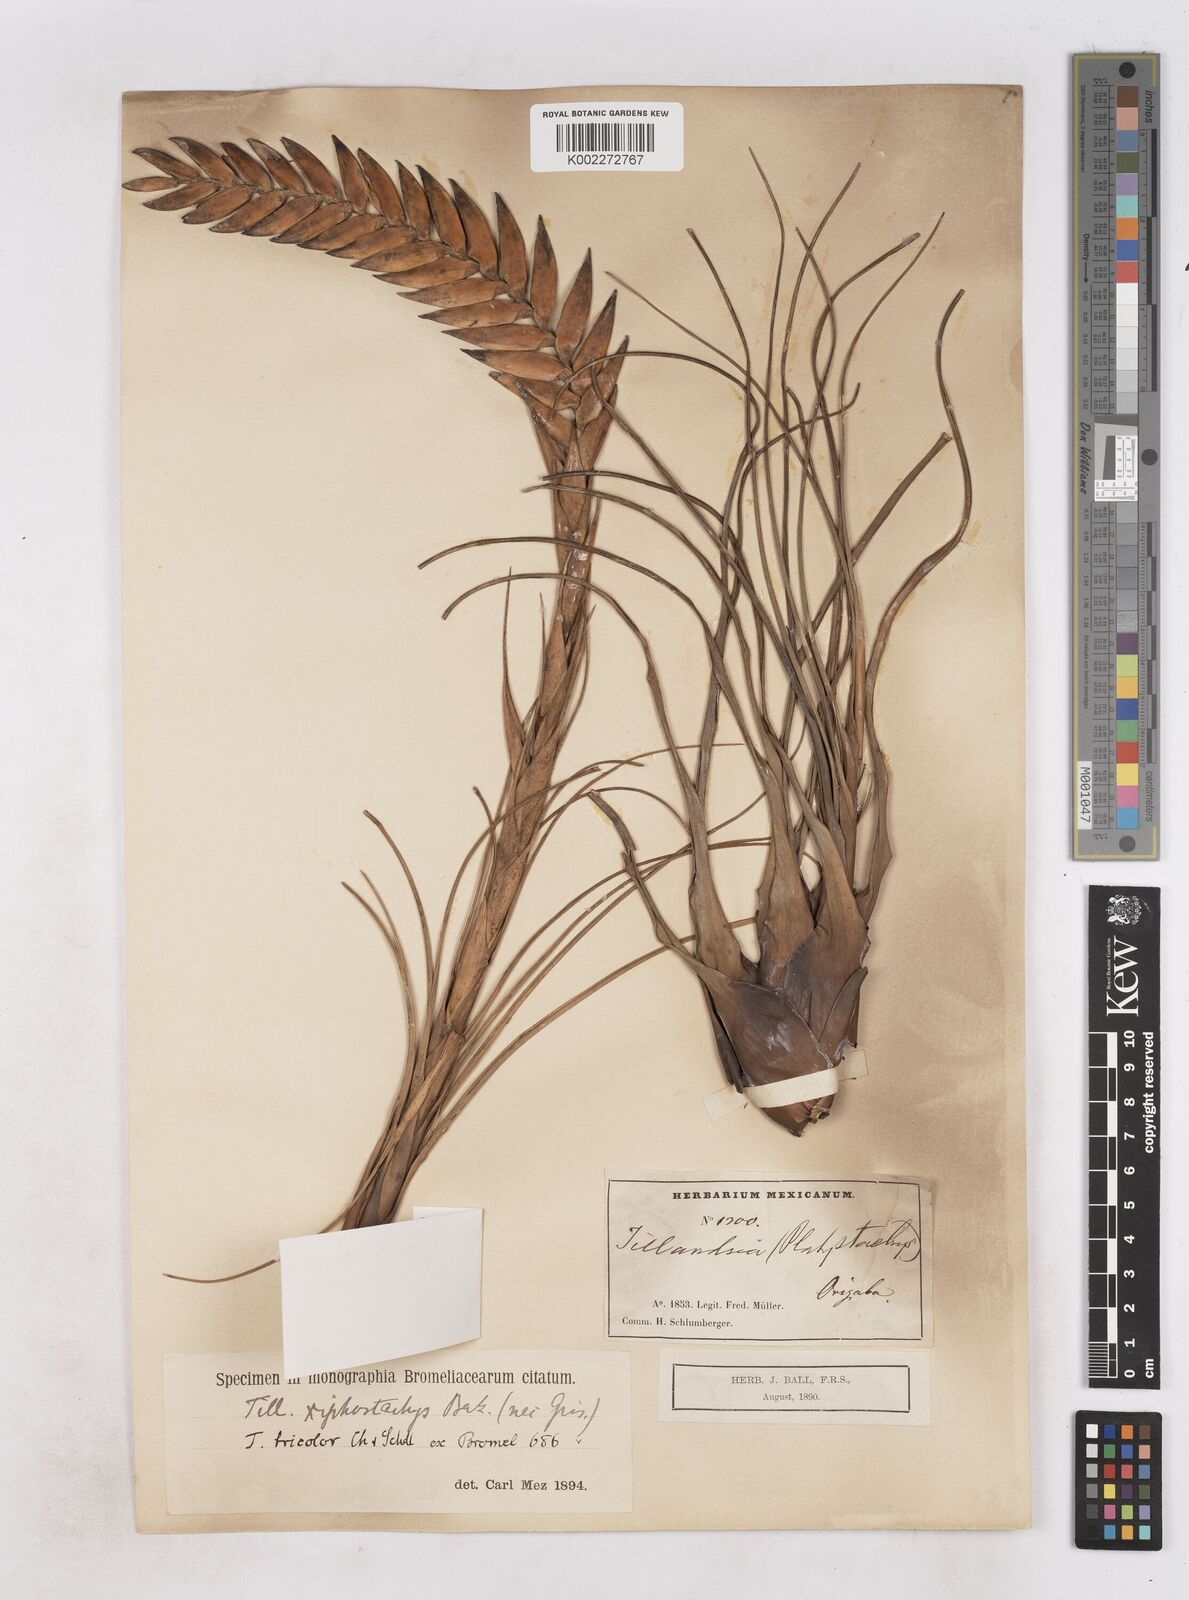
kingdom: Plantae
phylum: Tracheophyta
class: Liliopsida
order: Poales
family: Bromeliaceae
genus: Tillandsia
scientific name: Tillandsia tricolor
